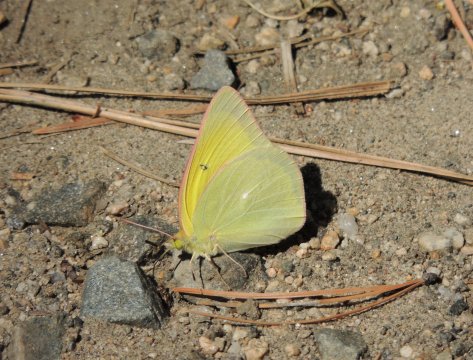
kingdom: Animalia
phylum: Arthropoda
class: Insecta
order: Lepidoptera
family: Pieridae
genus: Colias
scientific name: Colias alexandra
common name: Queen Alexandra's Sulphur
